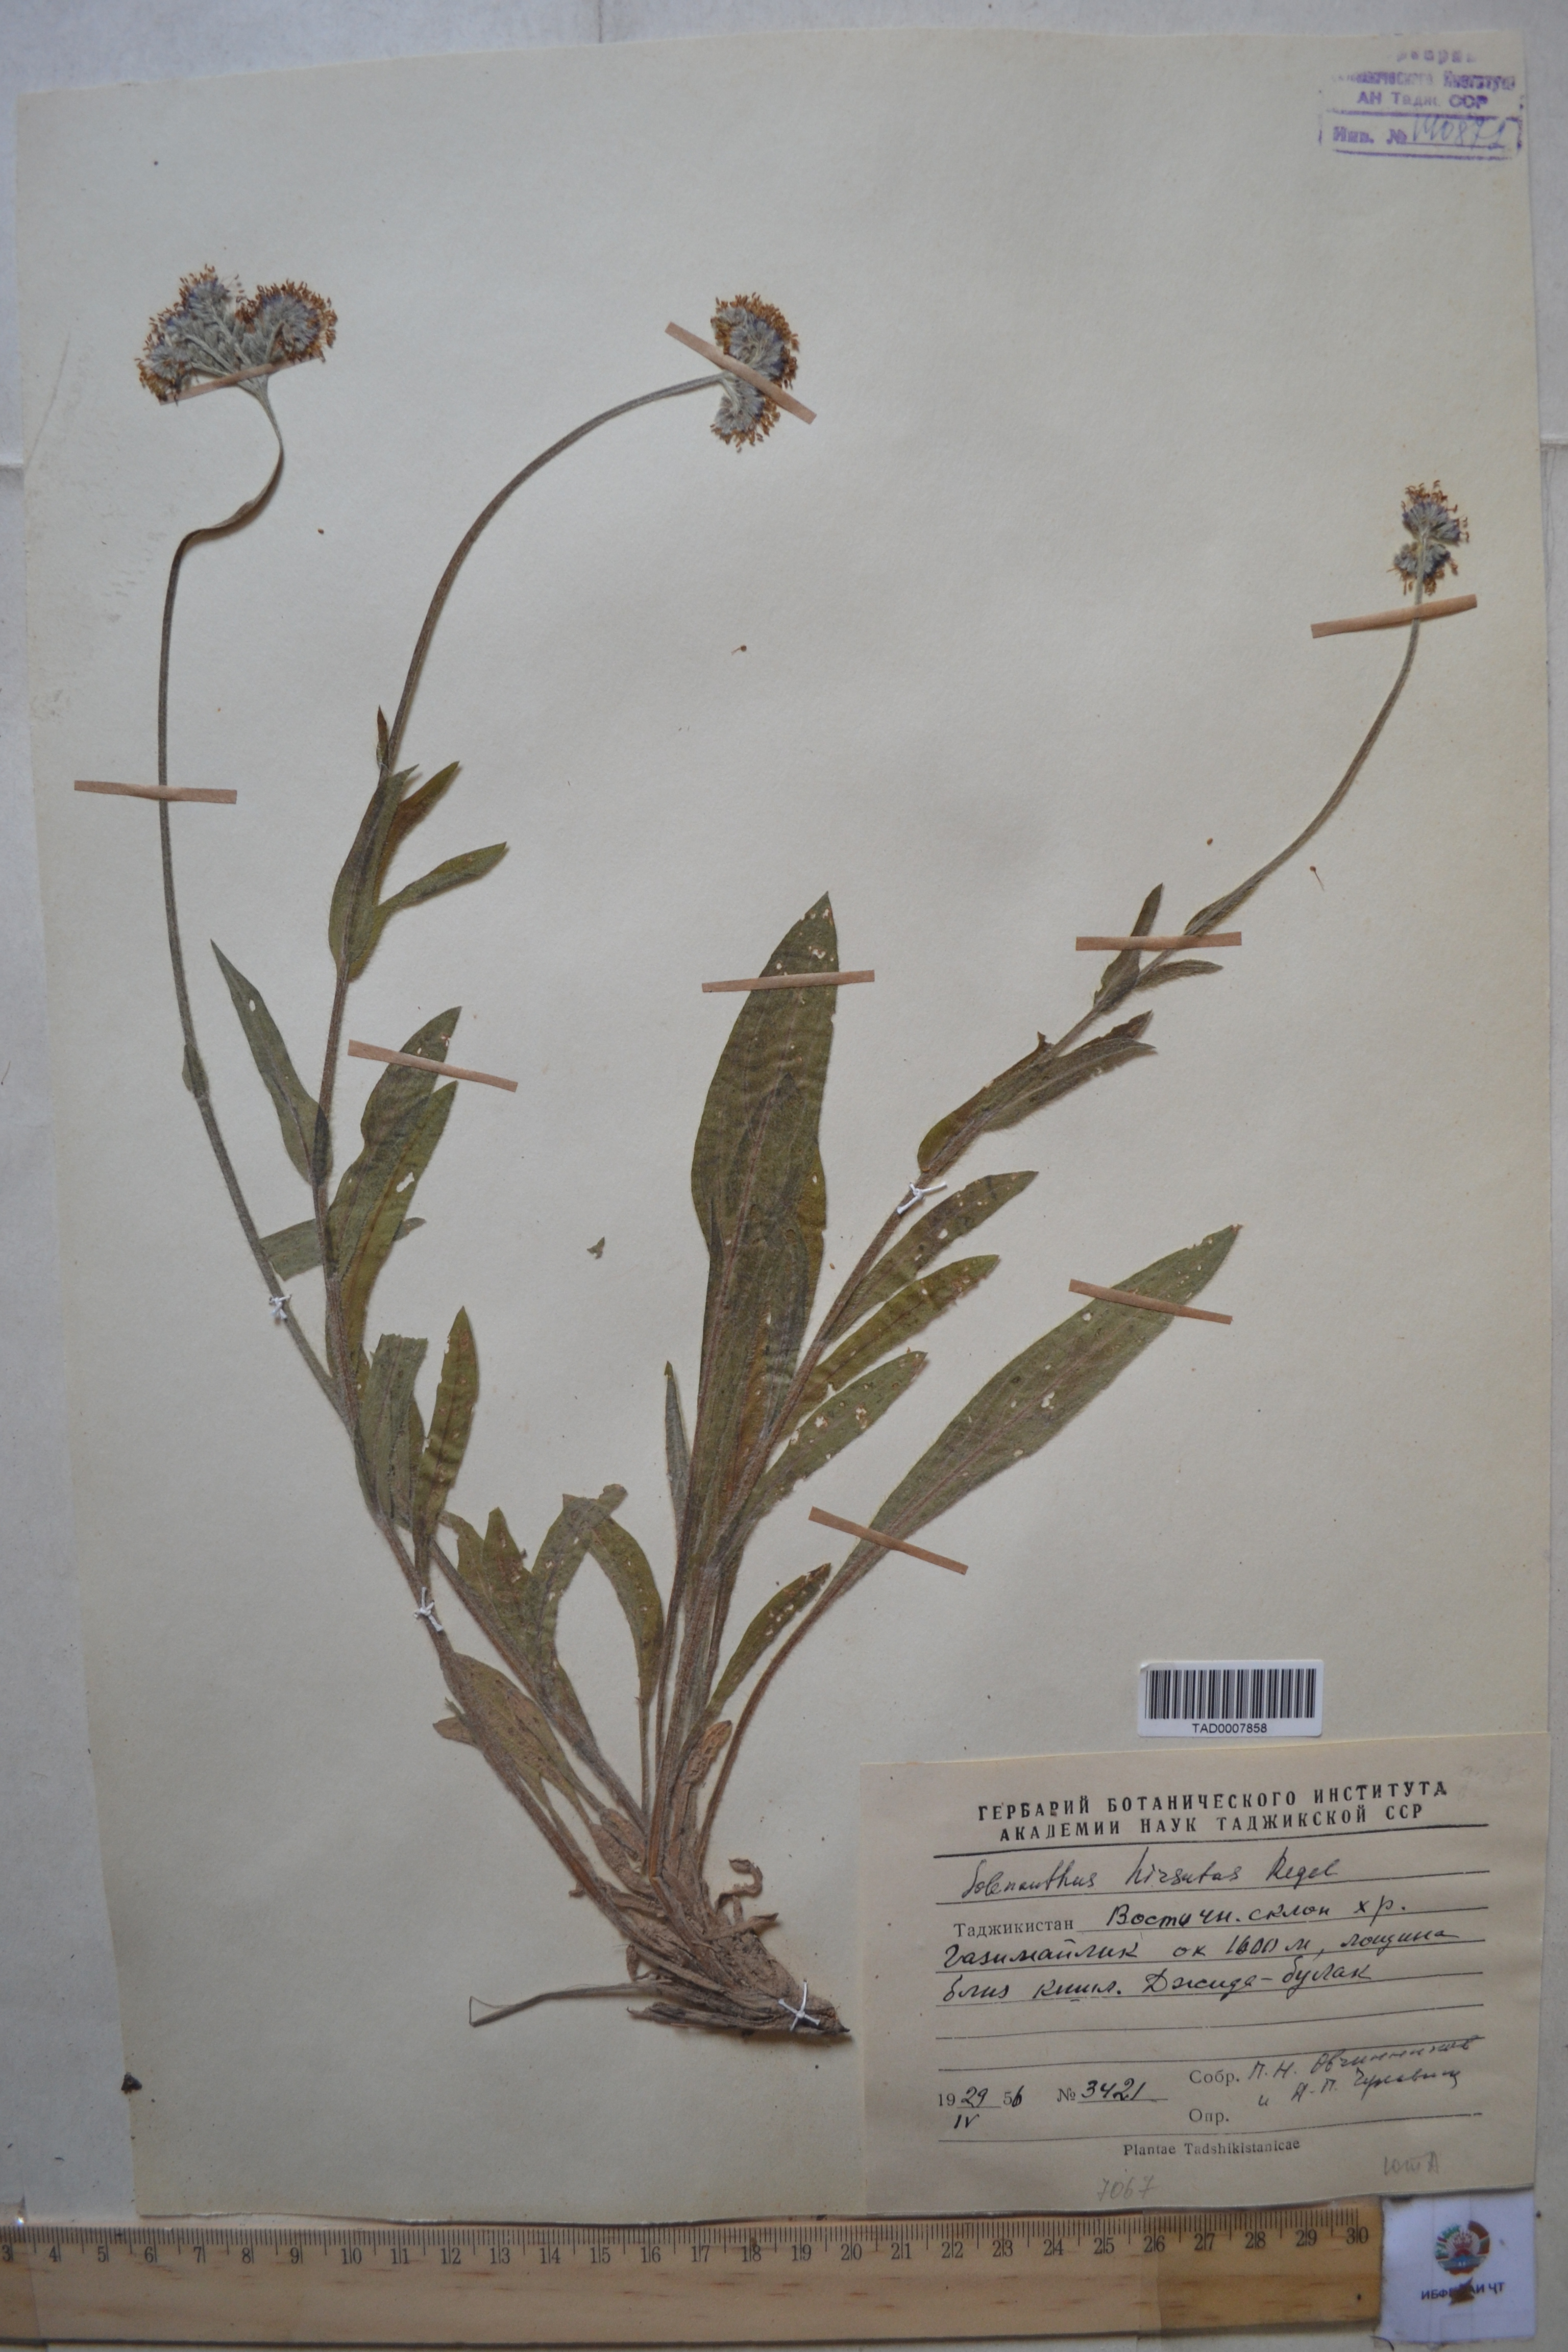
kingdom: Plantae
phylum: Tracheophyta
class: Magnoliopsida
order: Boraginales
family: Boraginaceae
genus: Solenanthus
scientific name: Solenanthus hirsutus
